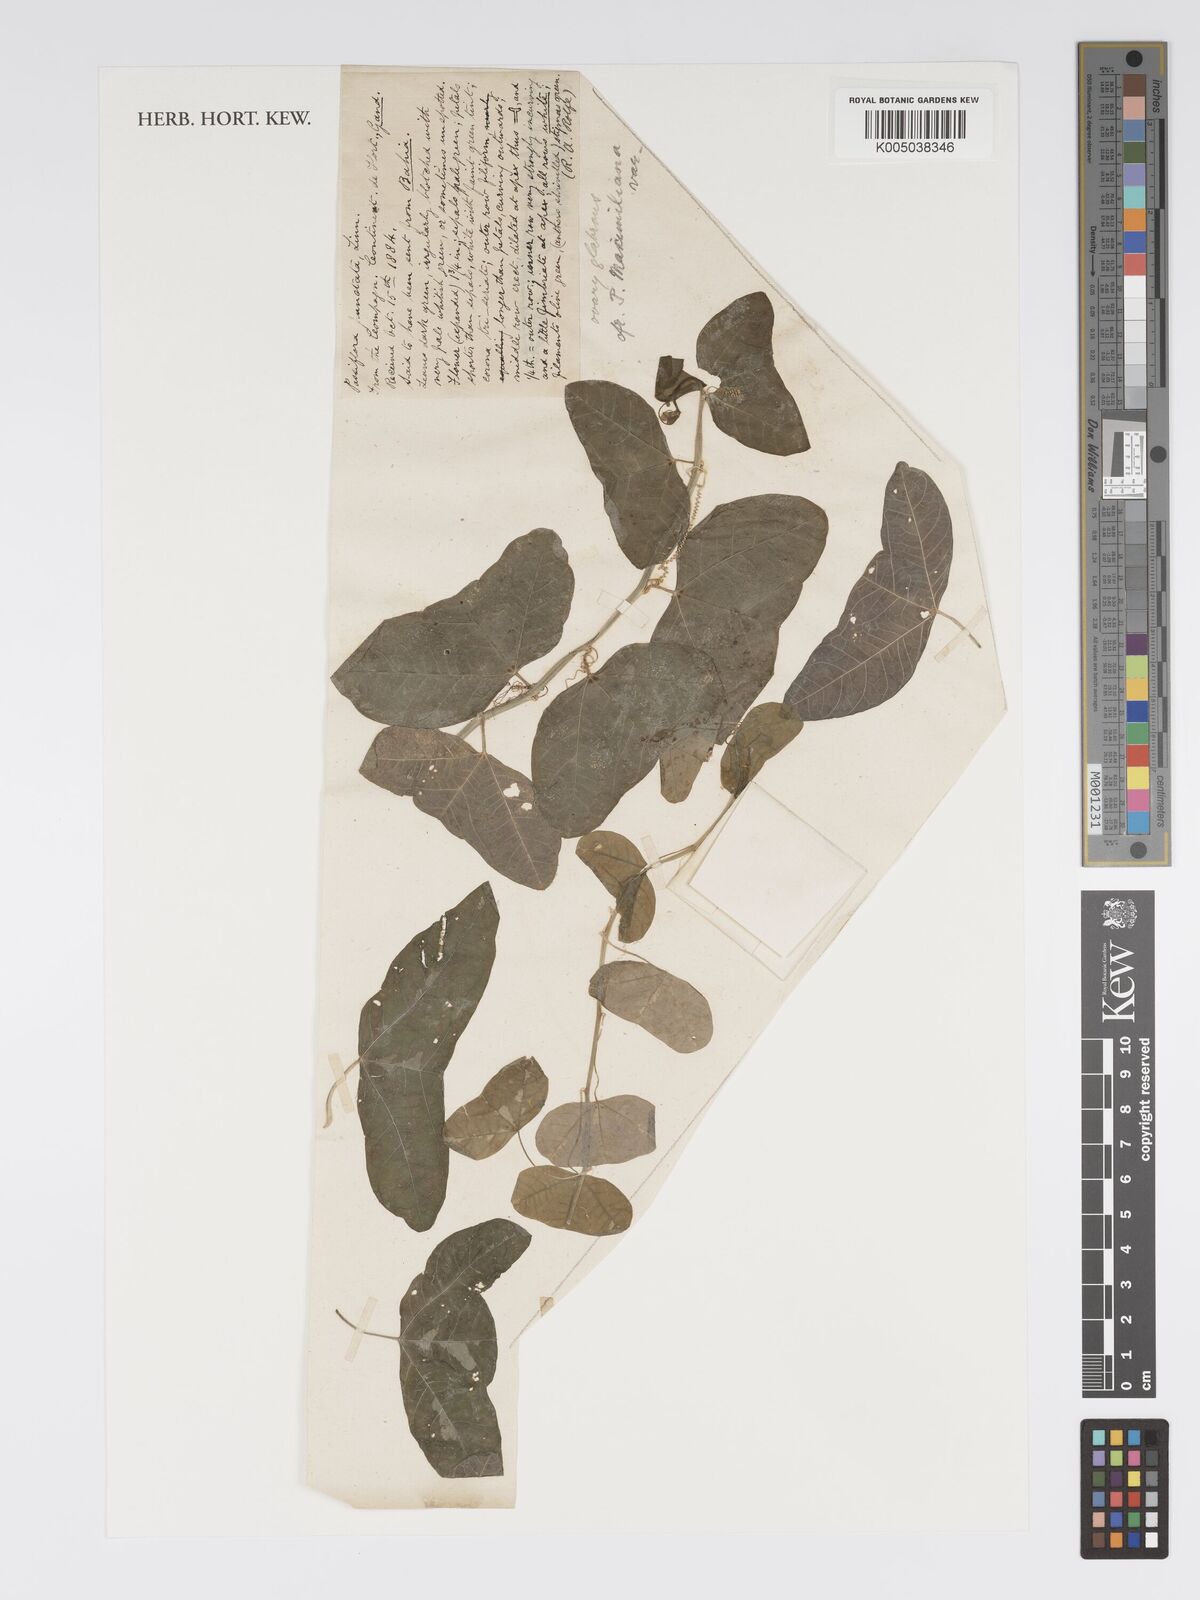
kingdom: Plantae
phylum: Tracheophyta
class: Magnoliopsida
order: Malpighiales
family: Passifloraceae
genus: Passiflora
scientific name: Passiflora punctata
